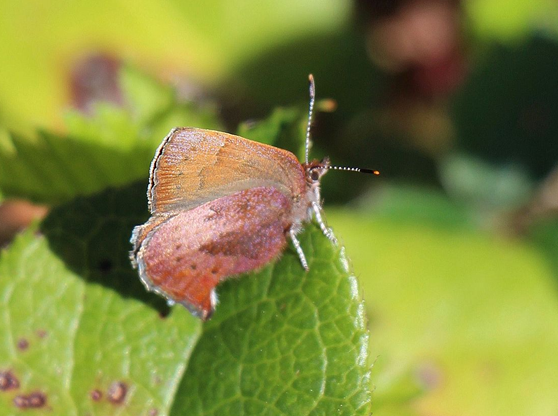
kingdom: Animalia
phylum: Arthropoda
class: Insecta
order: Lepidoptera
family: Lycaenidae
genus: Incisalia
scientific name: Incisalia irioides
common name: Brown Elfin
